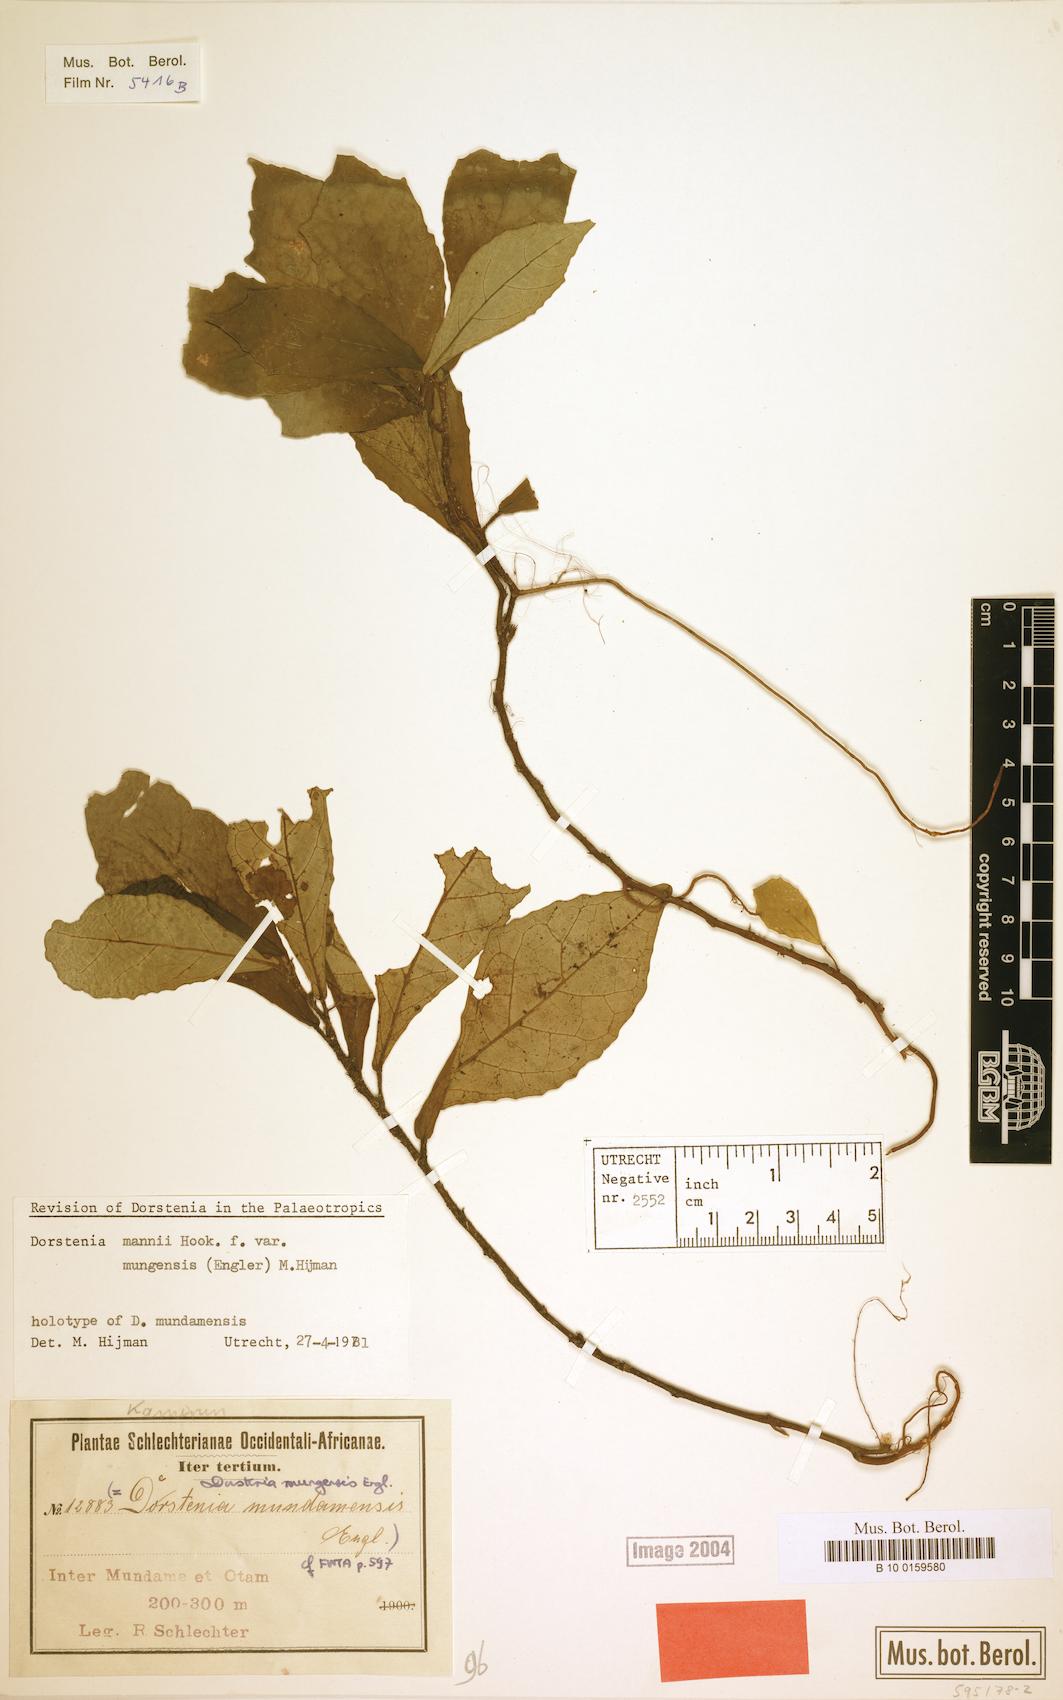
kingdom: Plantae
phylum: Tracheophyta
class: Magnoliopsida
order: Rosales
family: Moraceae
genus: Dorstenia
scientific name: Dorstenia mannii
